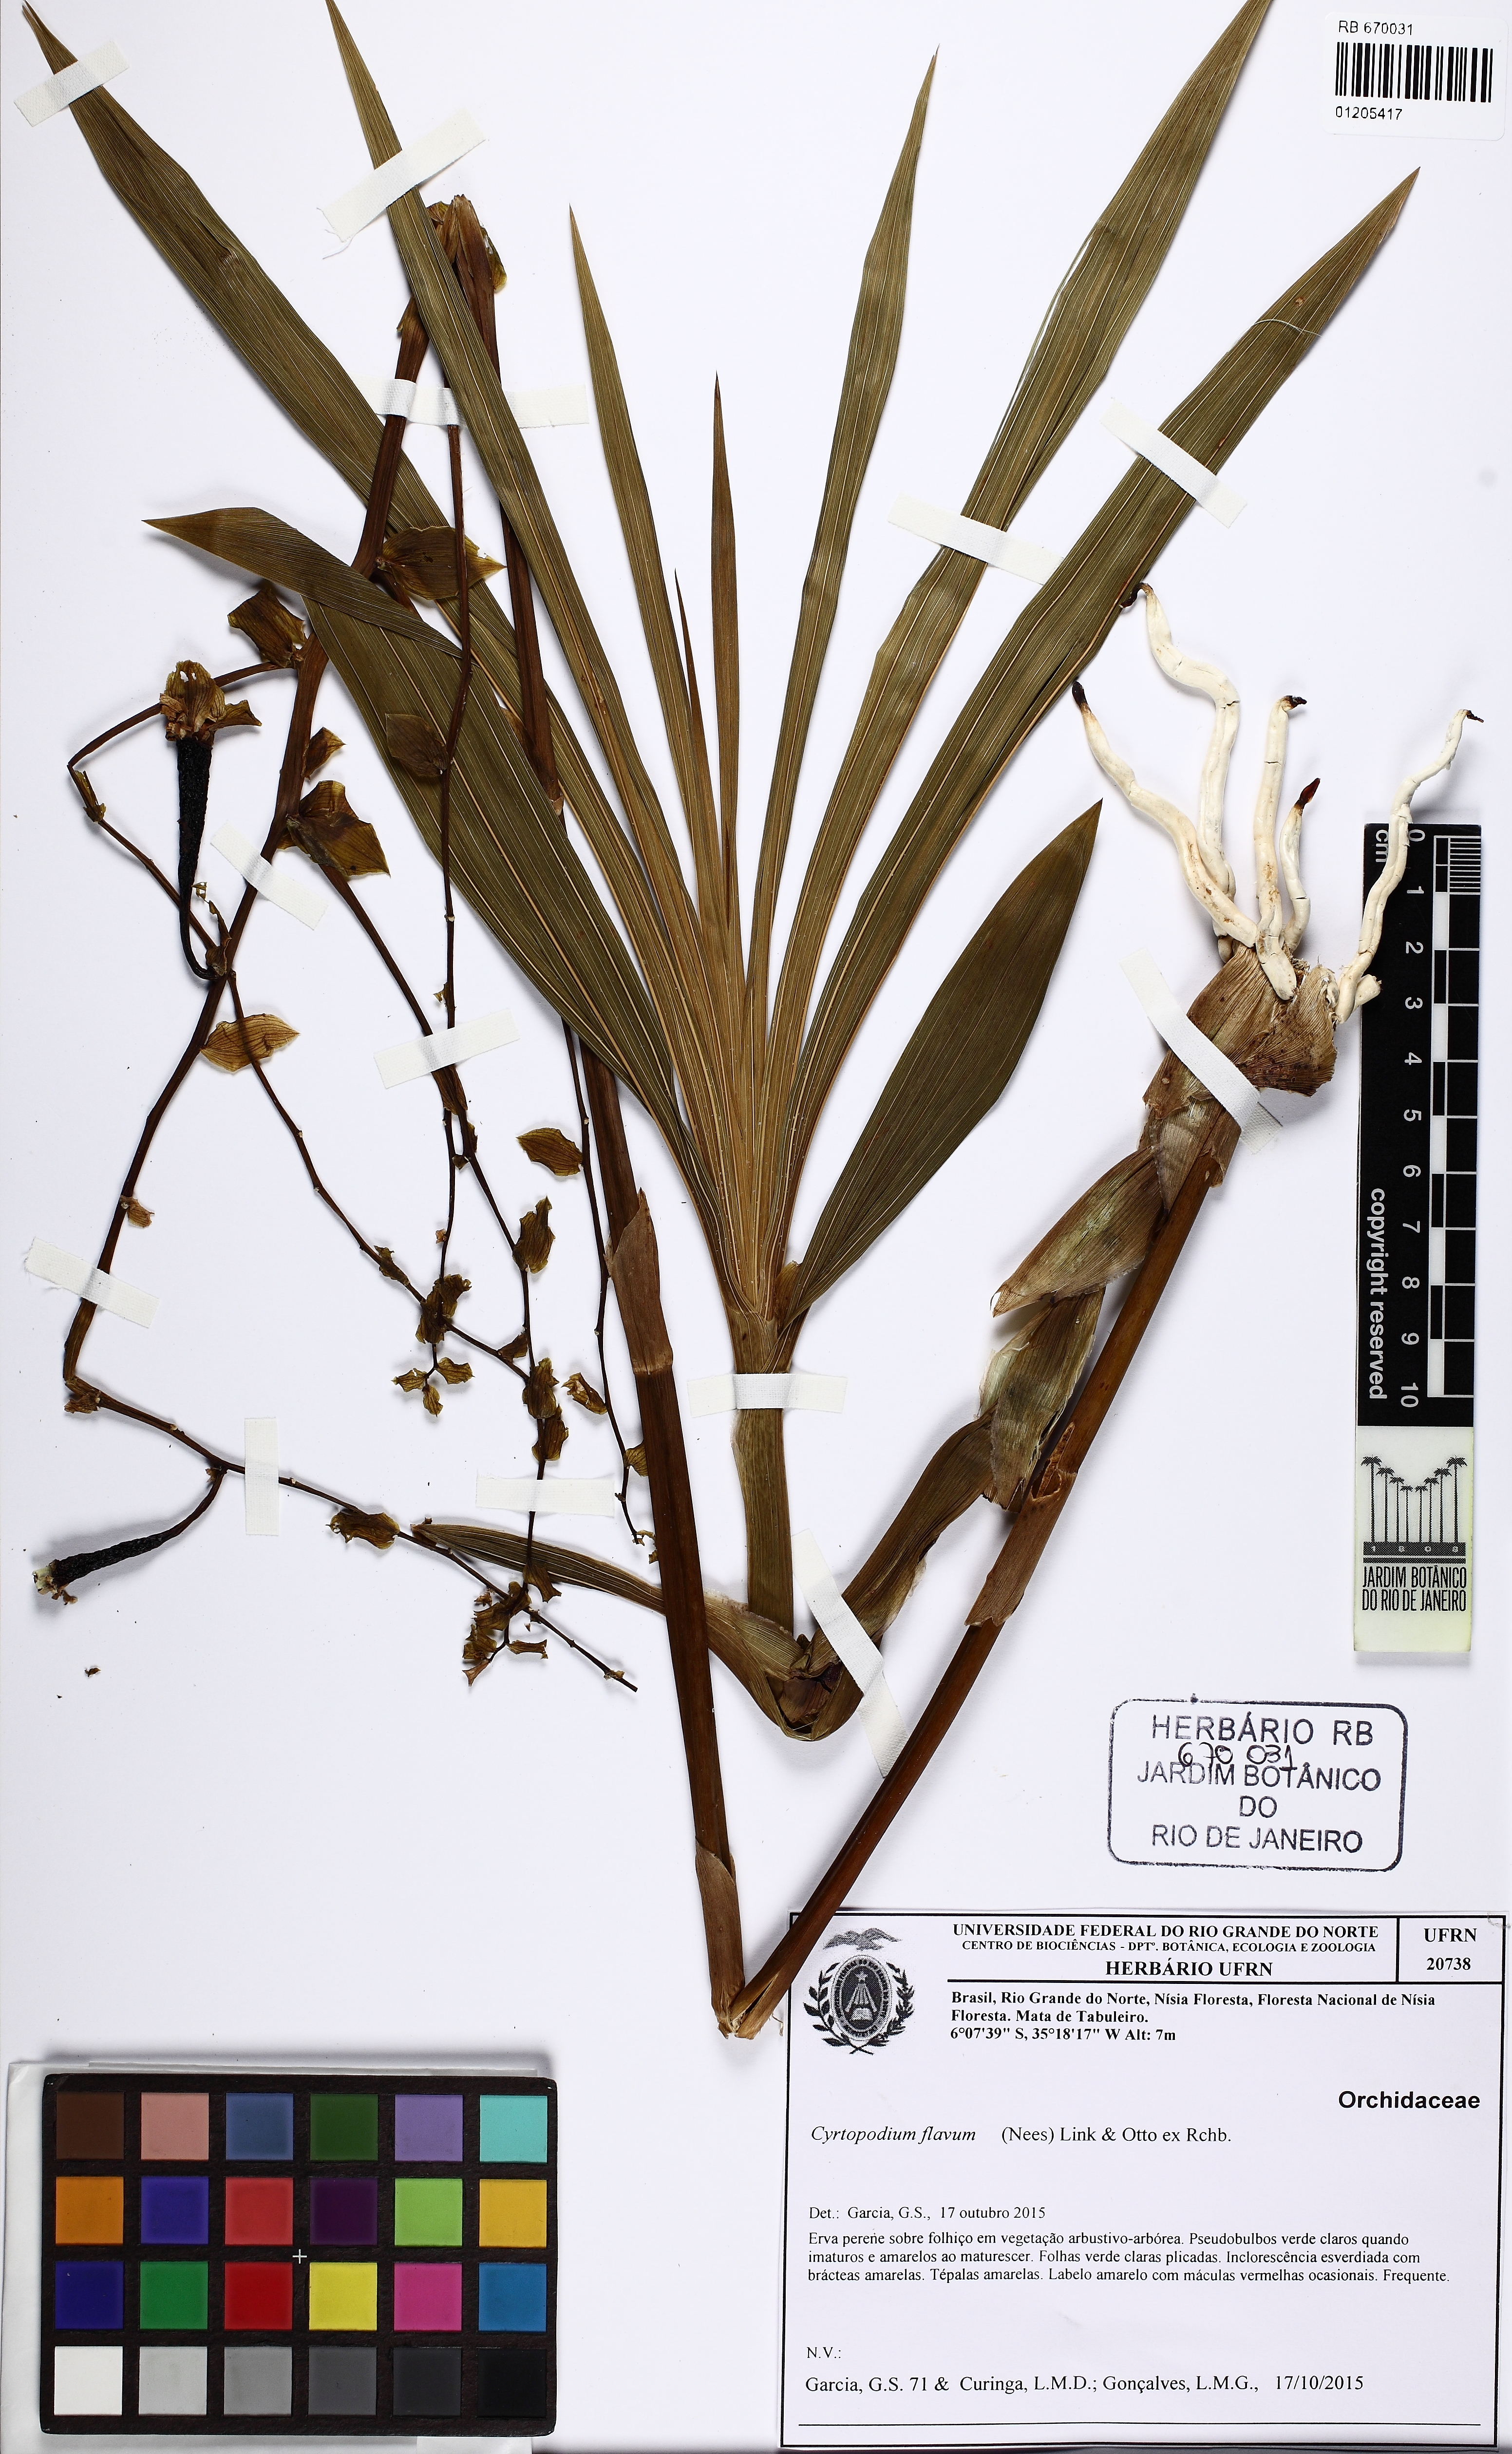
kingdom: Plantae
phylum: Tracheophyta
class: Liliopsida
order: Asparagales
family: Orchidaceae
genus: Cyrtopodium
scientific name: Cyrtopodium flavum
